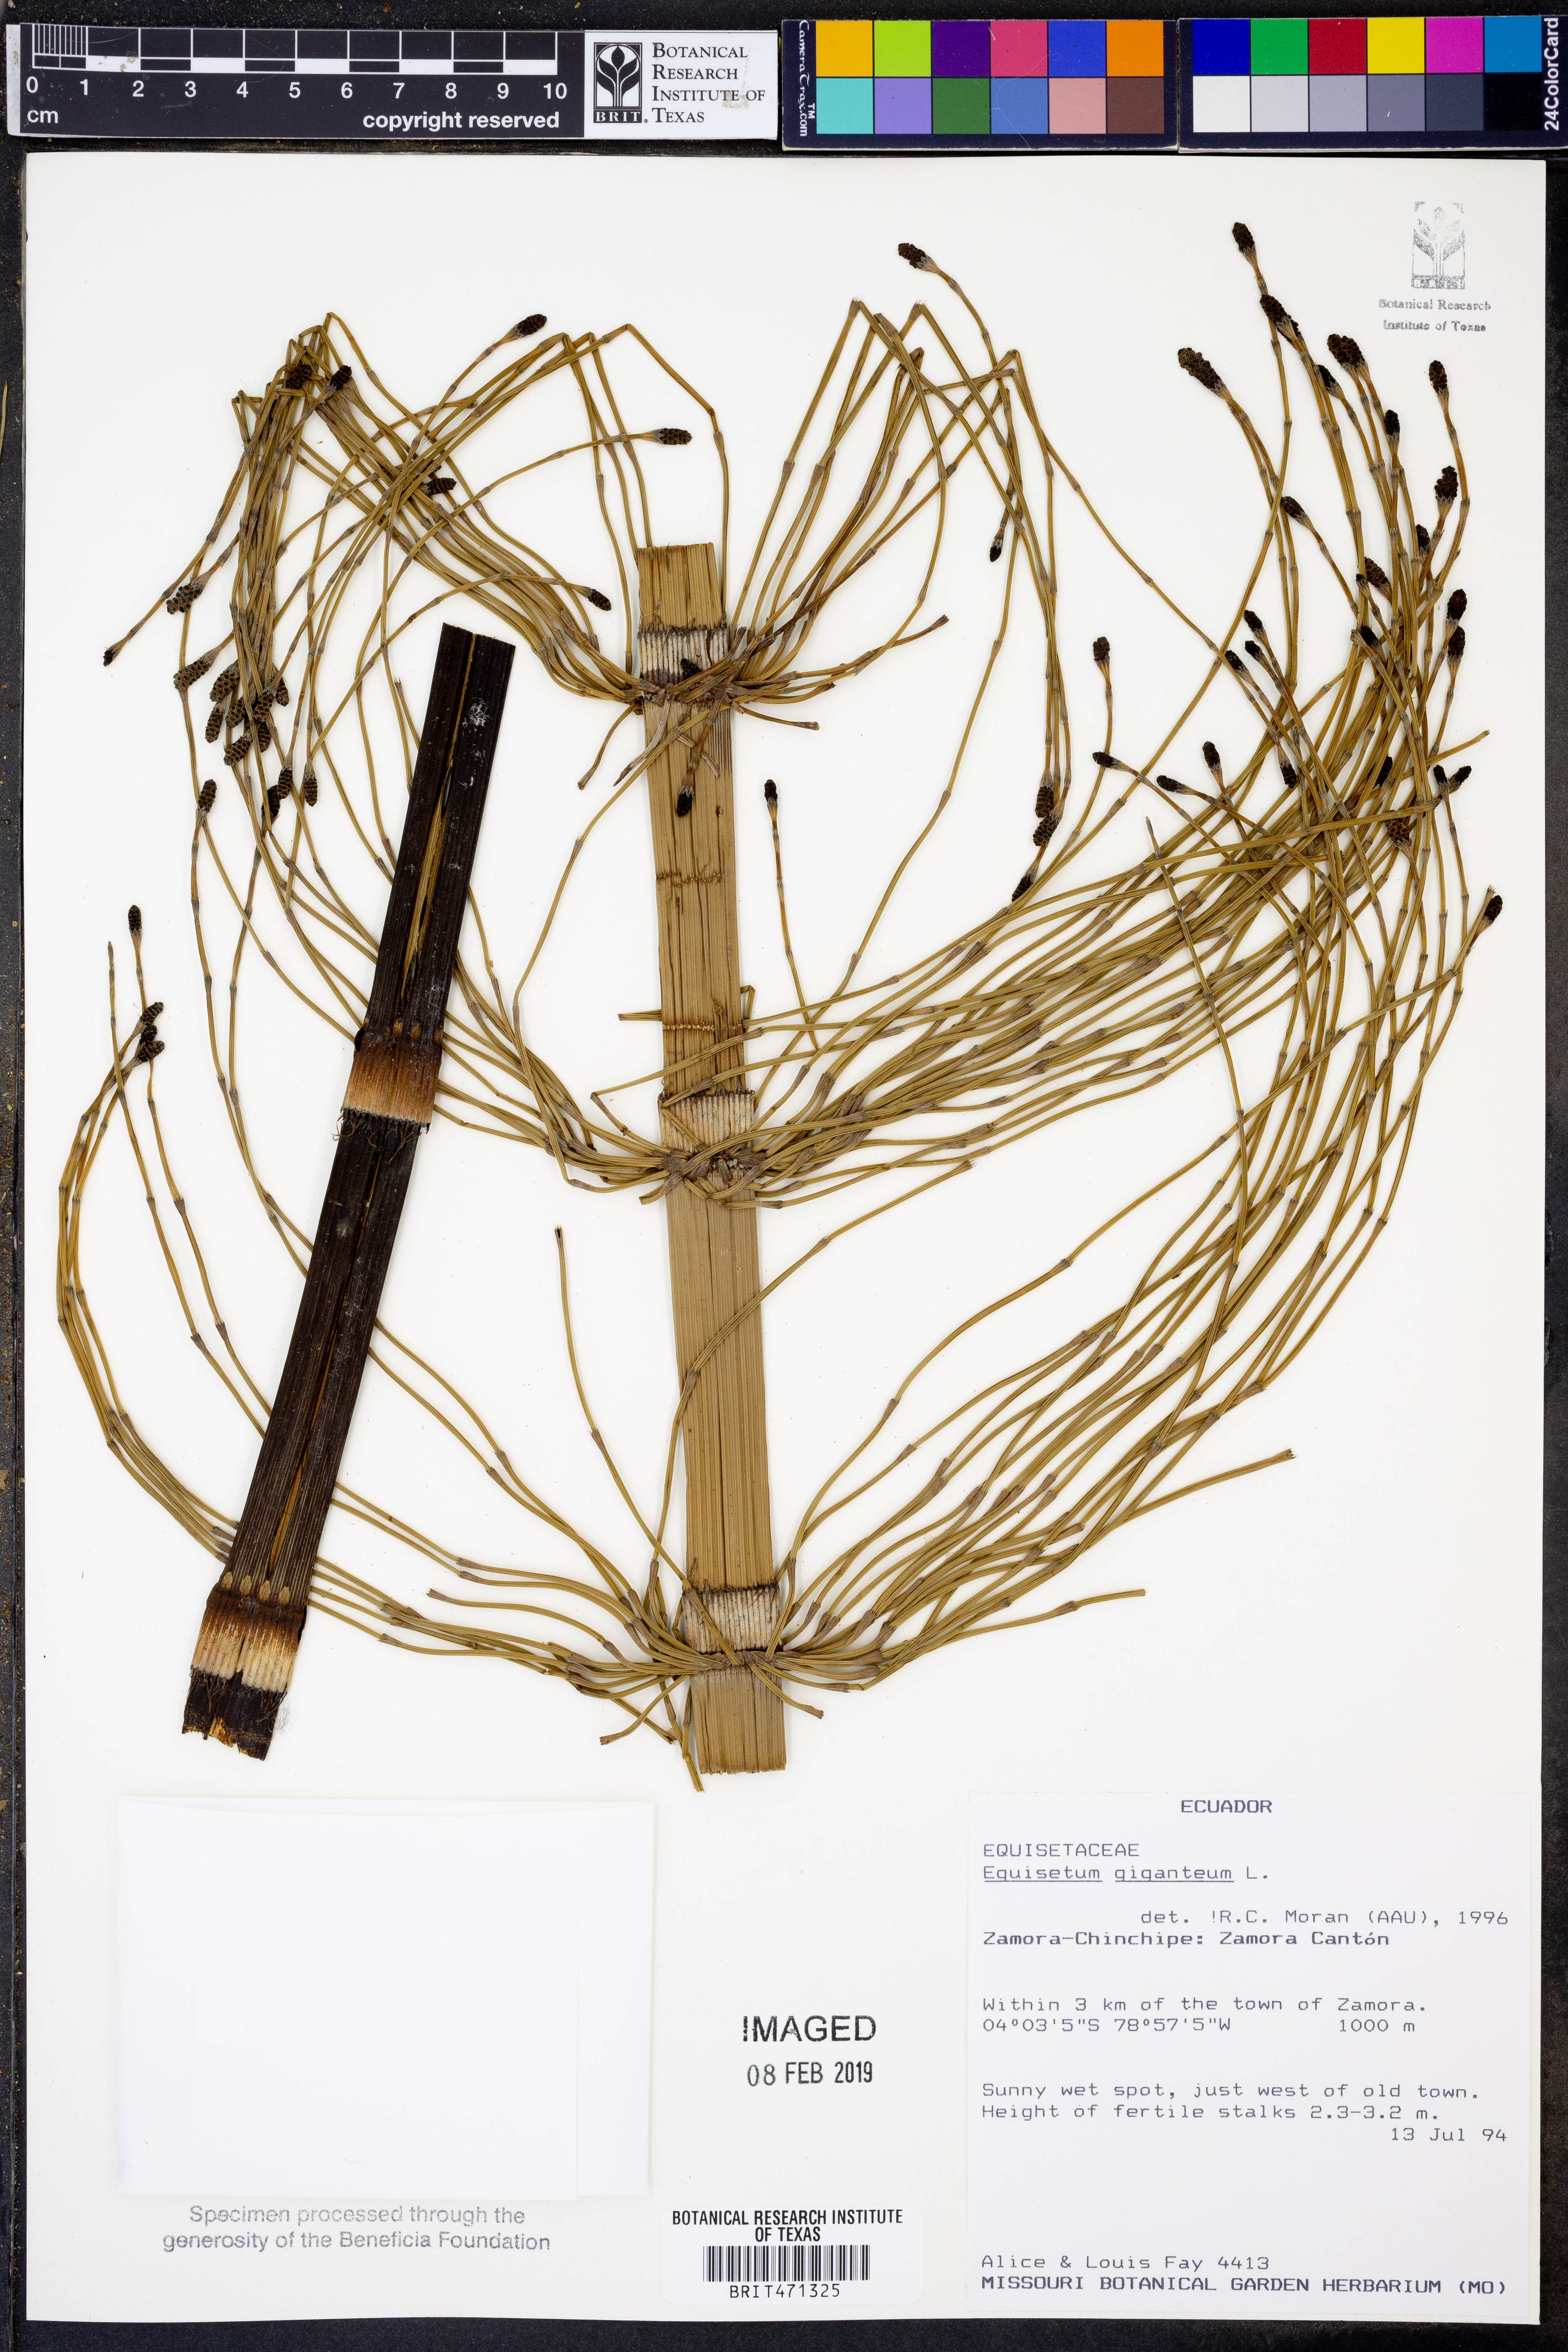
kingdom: Plantae
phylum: Tracheophyta
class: Polypodiopsida
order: Equisetales
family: Equisetaceae
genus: Equisetum
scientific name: Equisetum giganteum
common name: Giant horsetail
